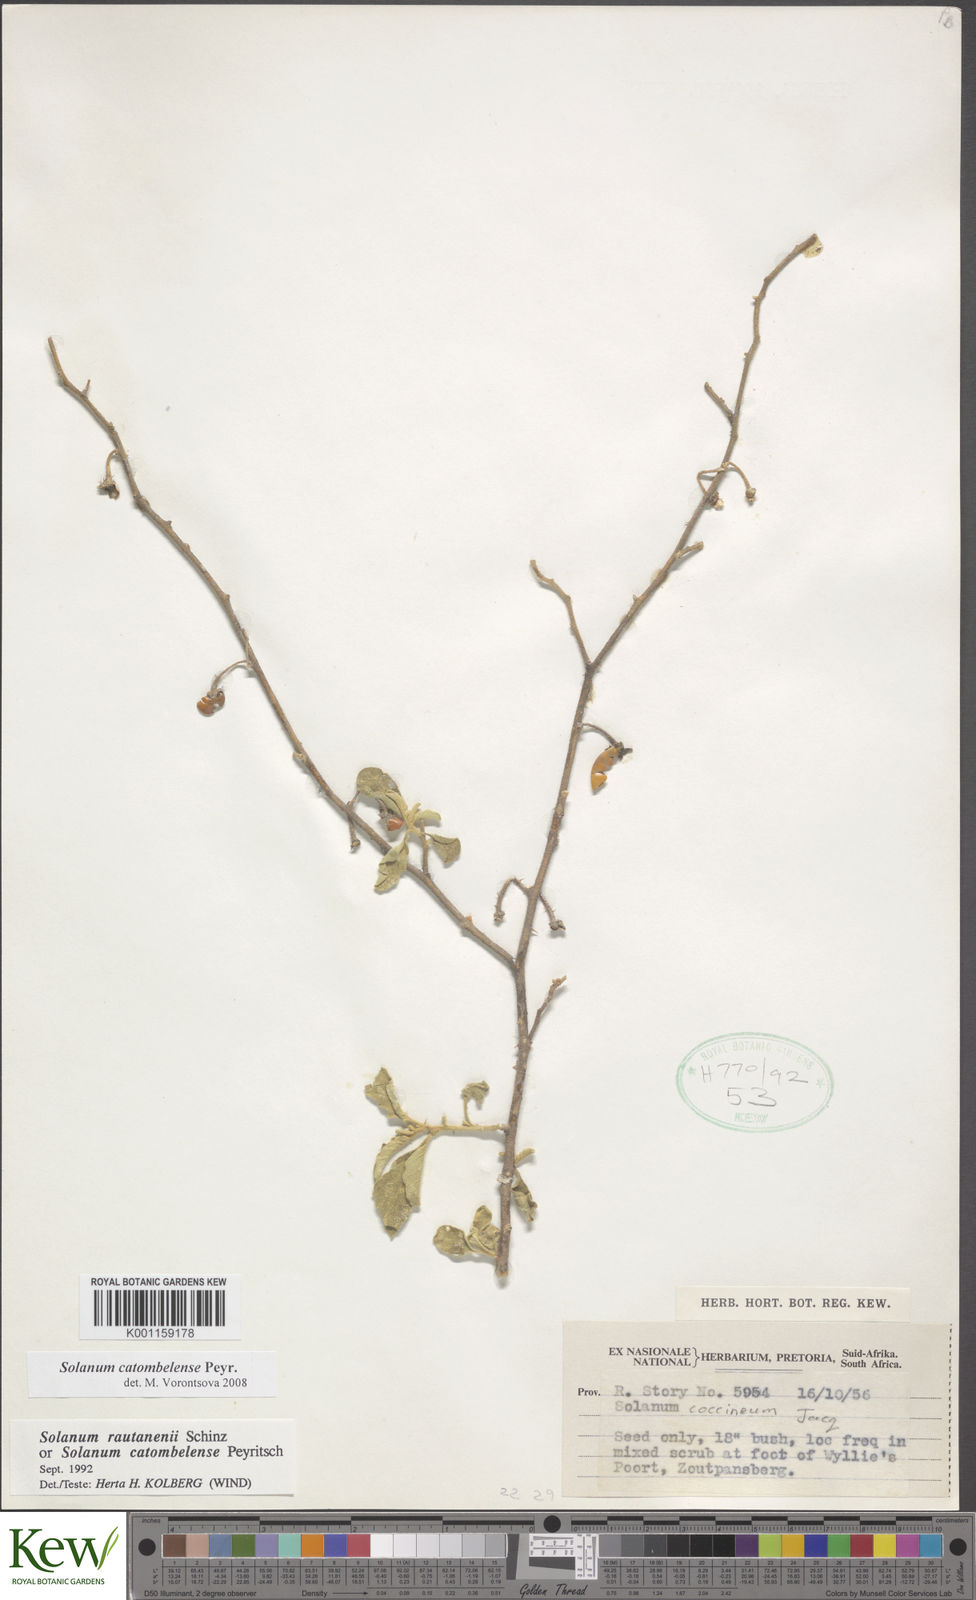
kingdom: Plantae
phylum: Tracheophyta
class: Magnoliopsida
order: Solanales
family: Solanaceae
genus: Solanum
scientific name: Solanum catombelense
